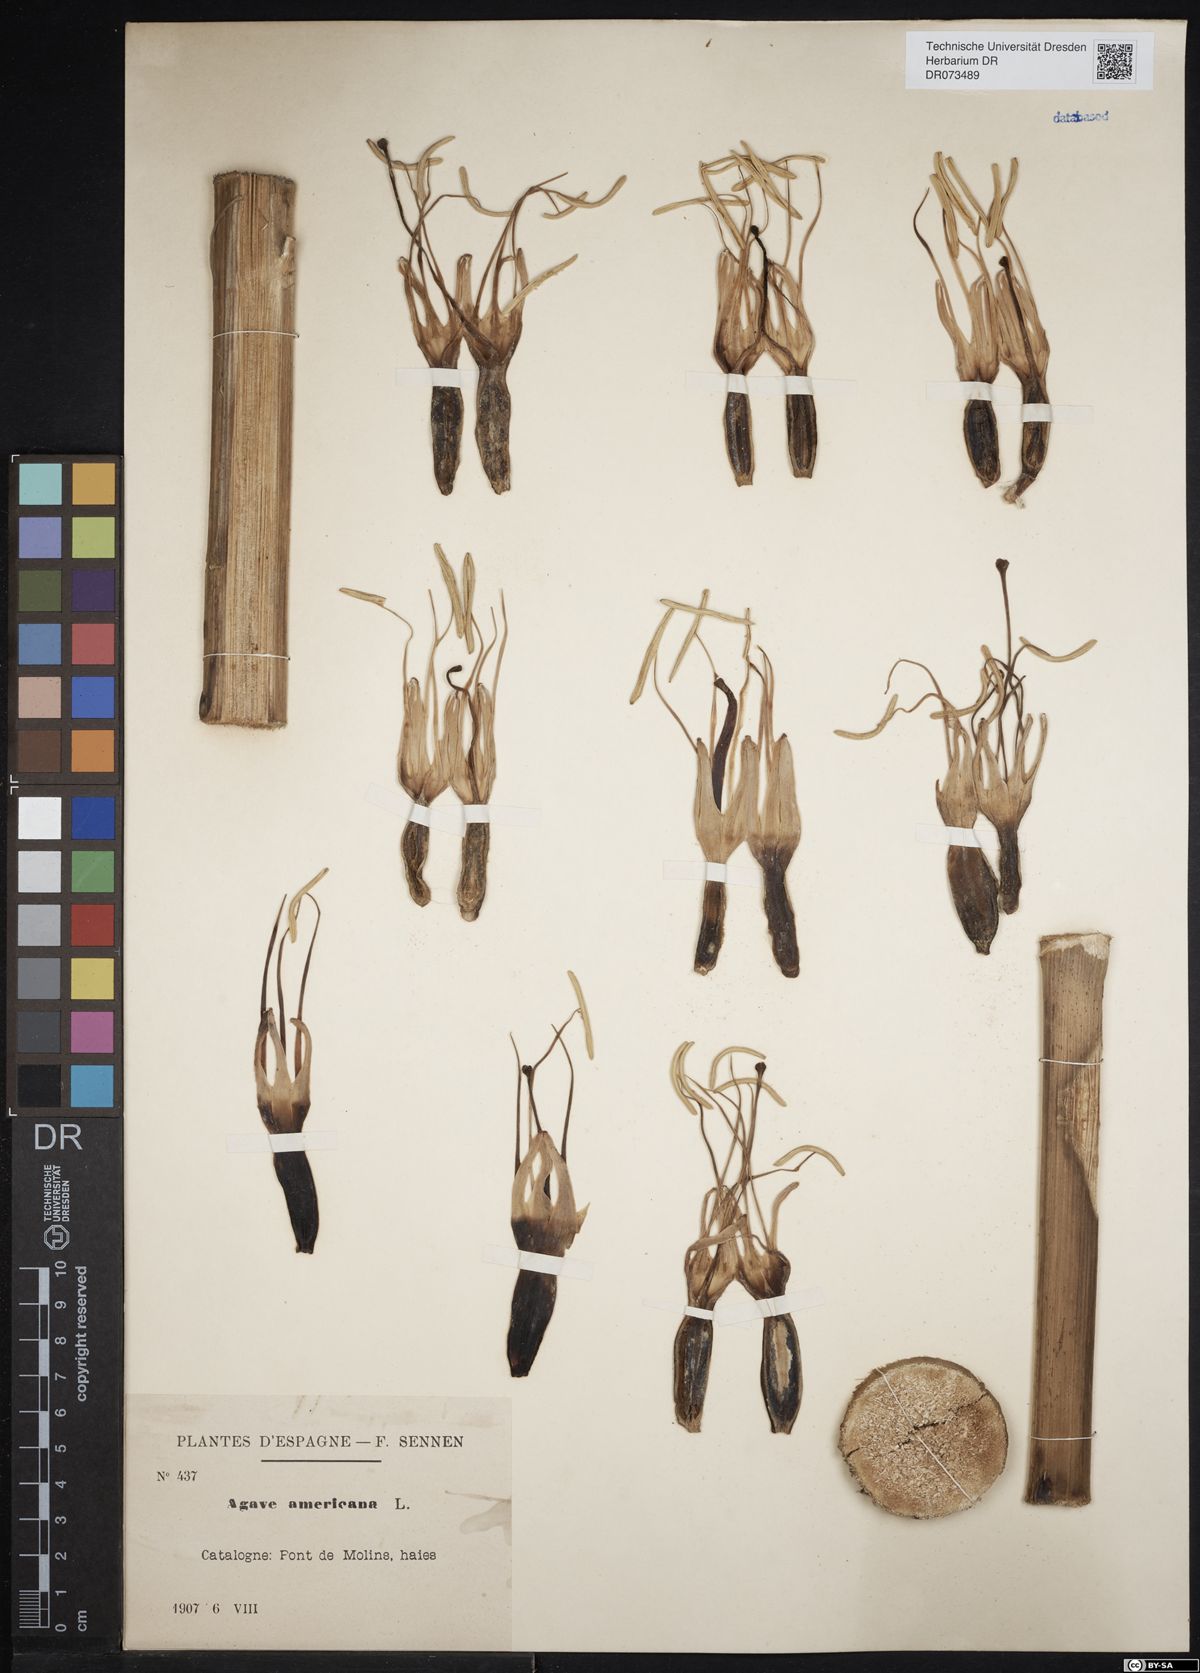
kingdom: Plantae
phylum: Tracheophyta
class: Liliopsida
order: Asparagales
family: Asparagaceae
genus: Agave
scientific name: Agave americana
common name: Centuryplant
